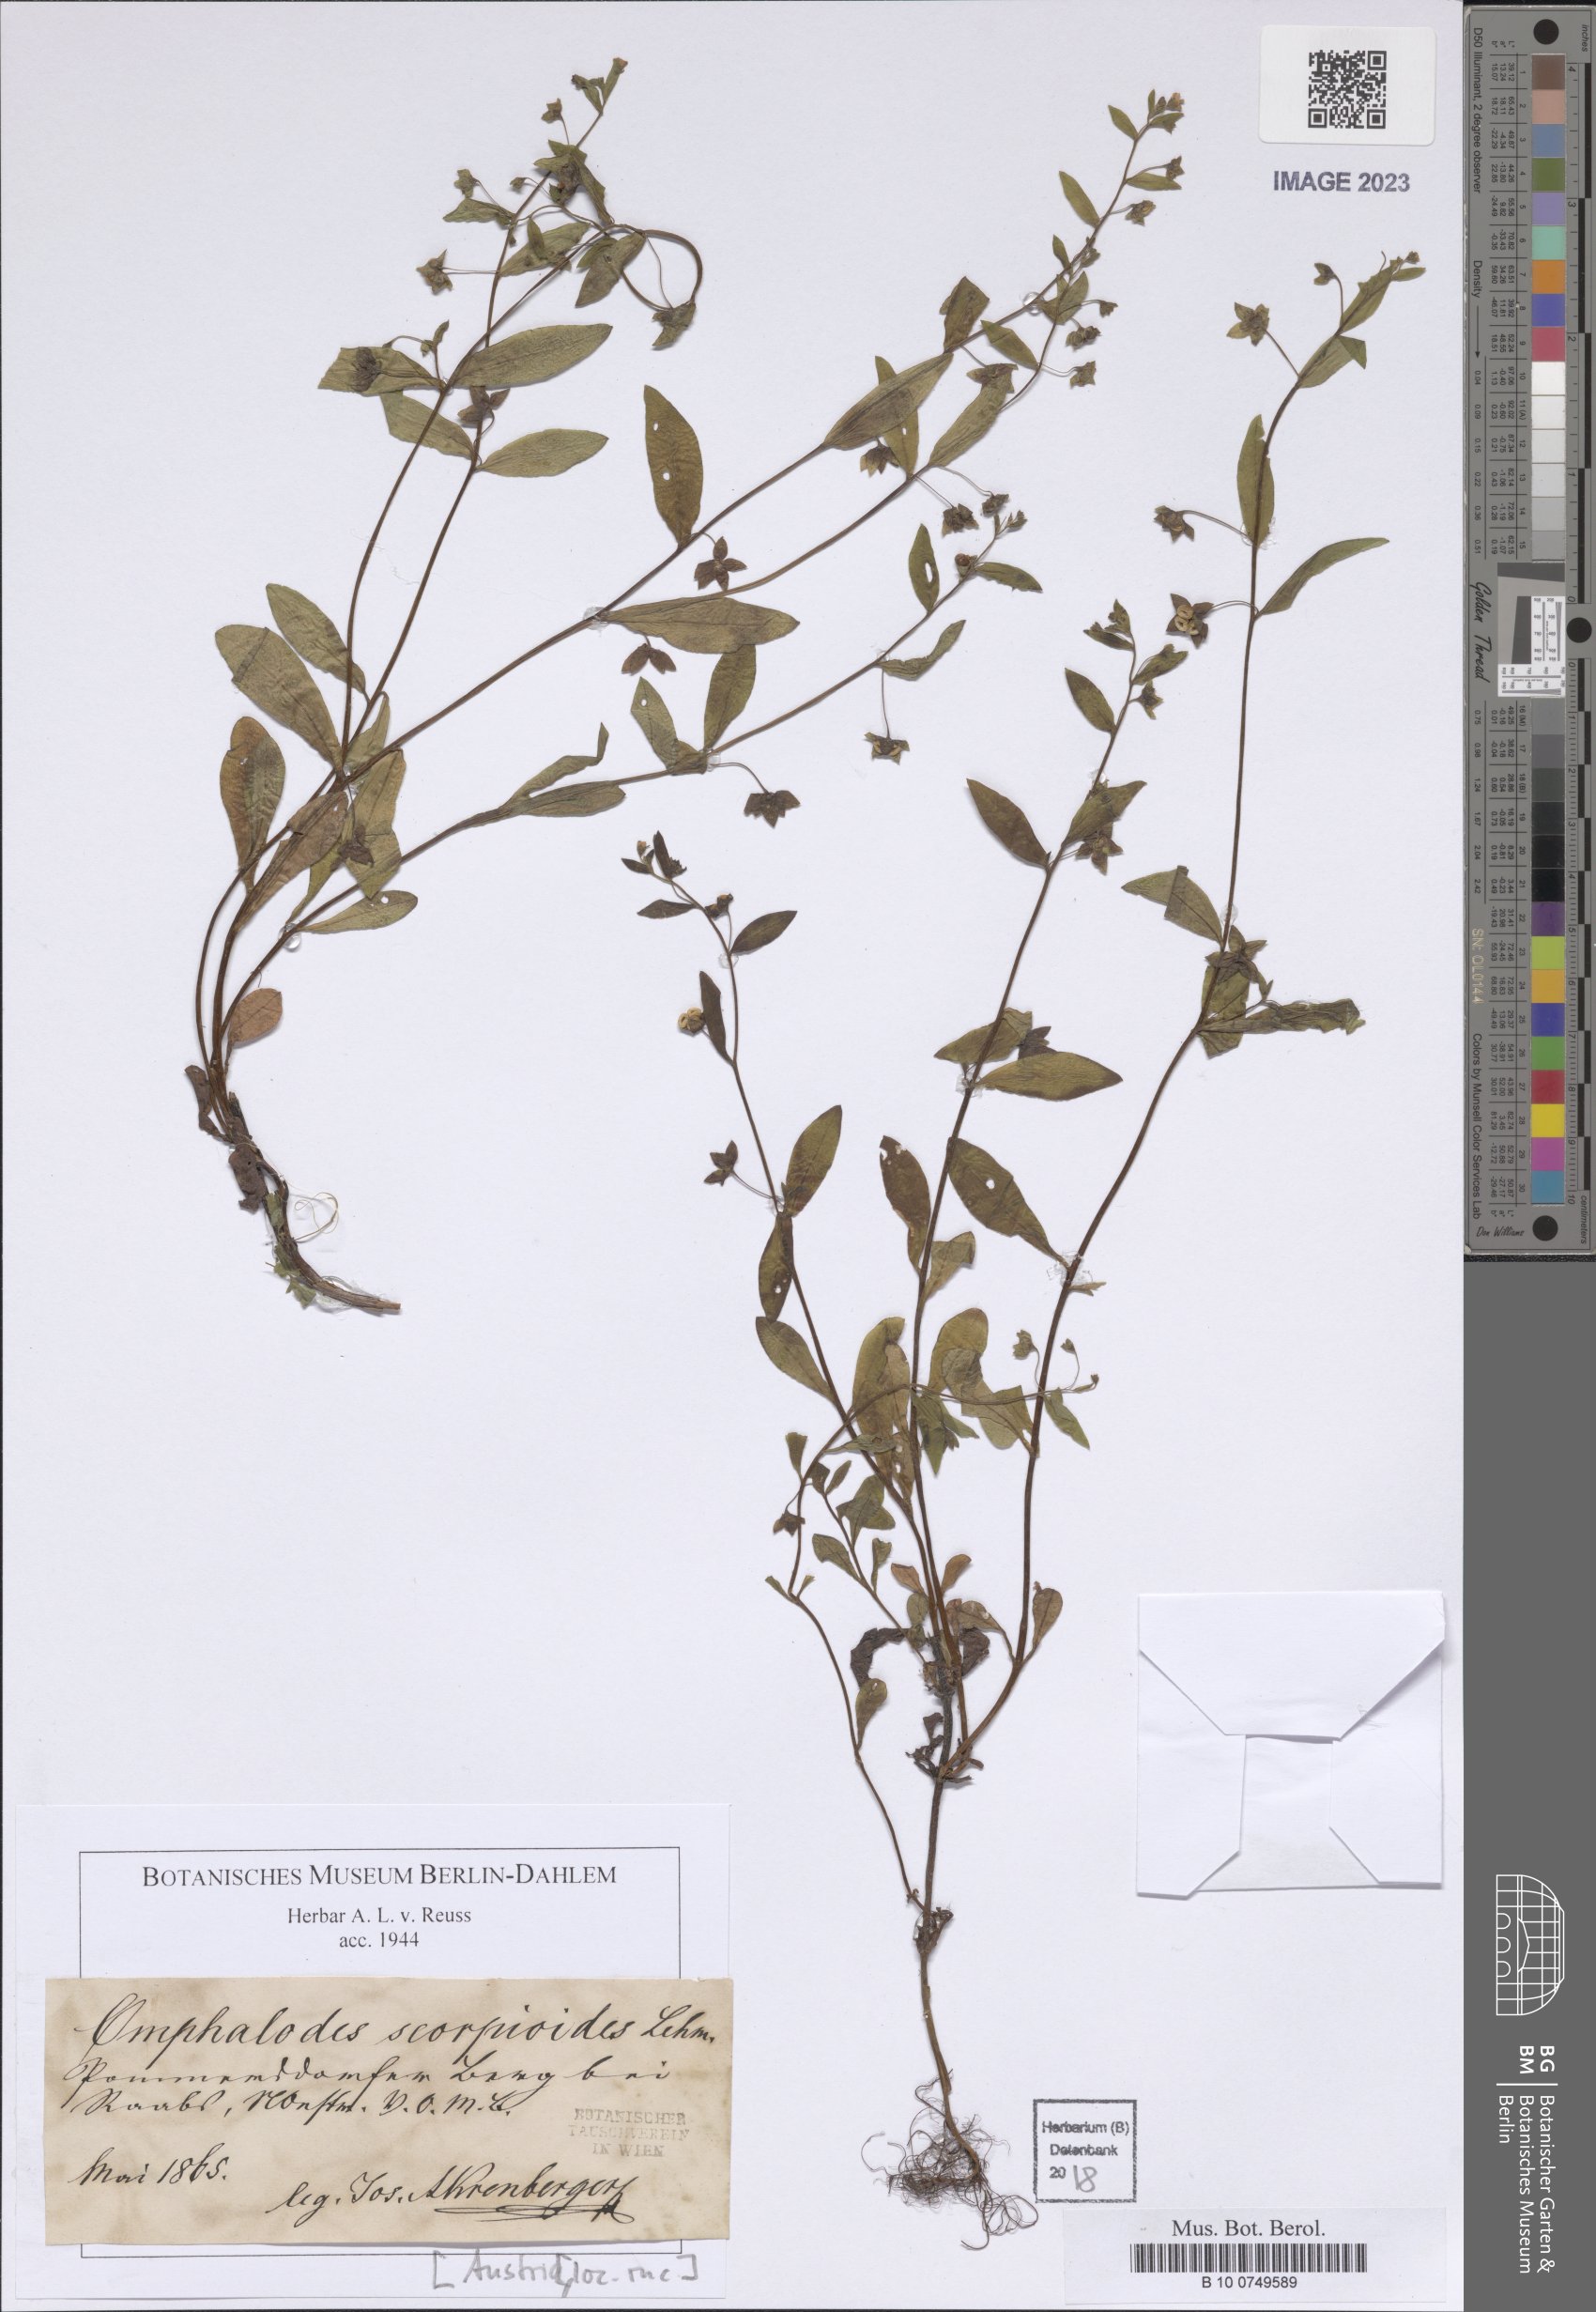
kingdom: Plantae
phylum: Tracheophyta
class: Magnoliopsida
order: Boraginales
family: Boraginaceae
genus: Memoremea
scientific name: Memoremea scorpioides
